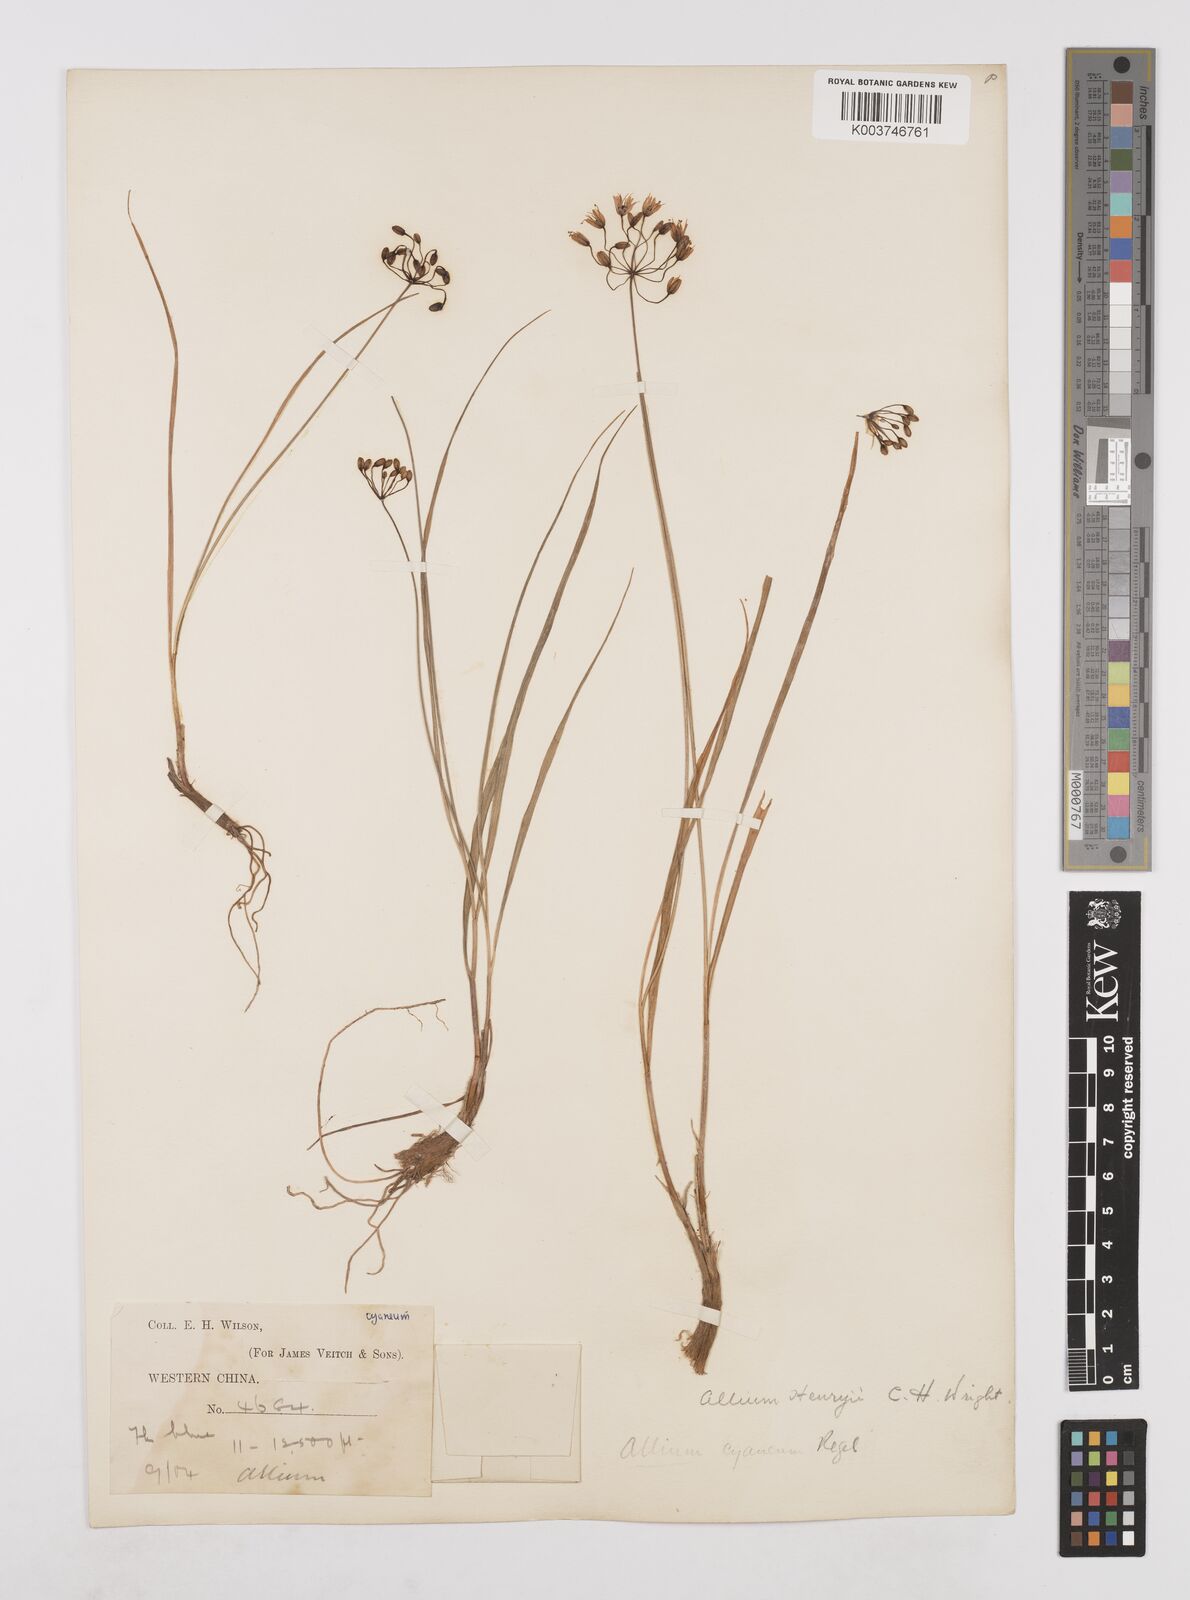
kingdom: Plantae
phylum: Tracheophyta
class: Liliopsida
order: Asparagales
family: Amaryllidaceae
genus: Allium
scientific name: Allium henryi
